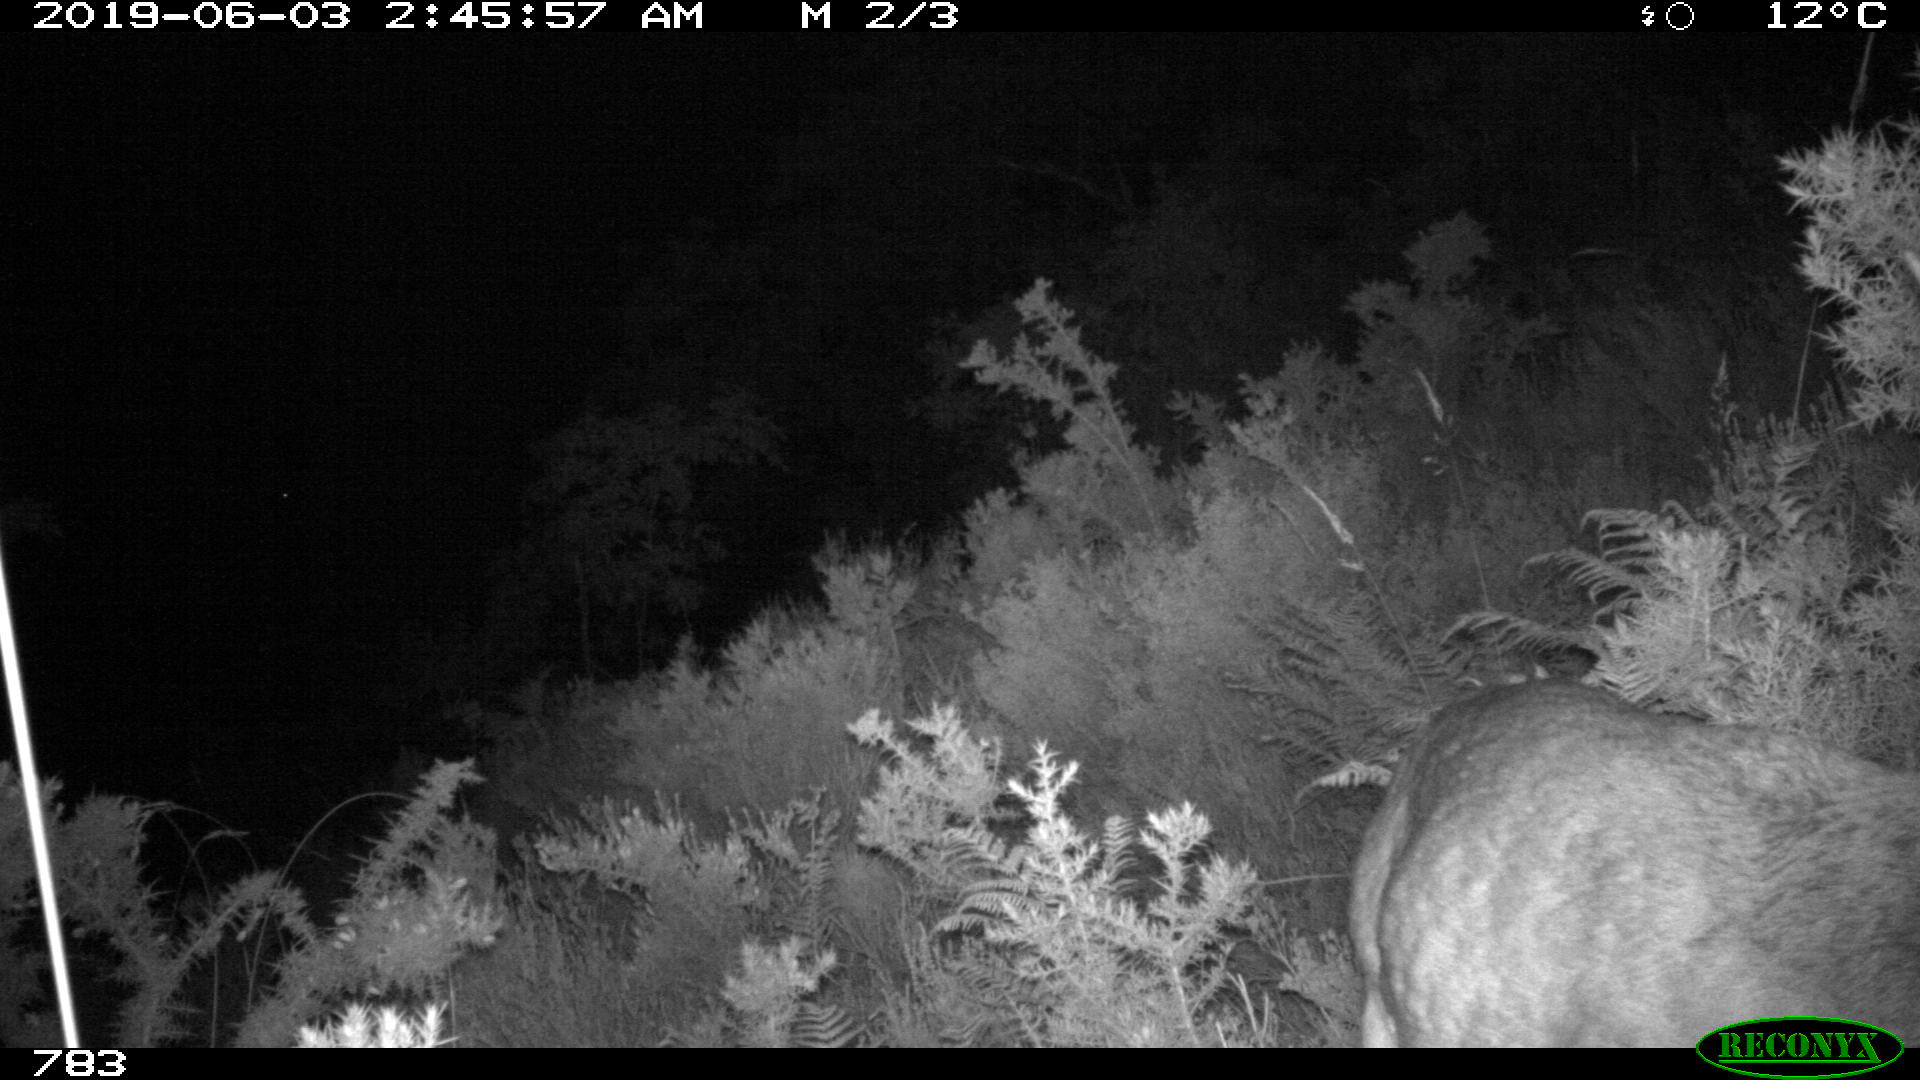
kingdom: Animalia
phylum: Chordata
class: Mammalia
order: Artiodactyla
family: Cervidae
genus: Capreolus
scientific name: Capreolus capreolus
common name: Western roe deer
